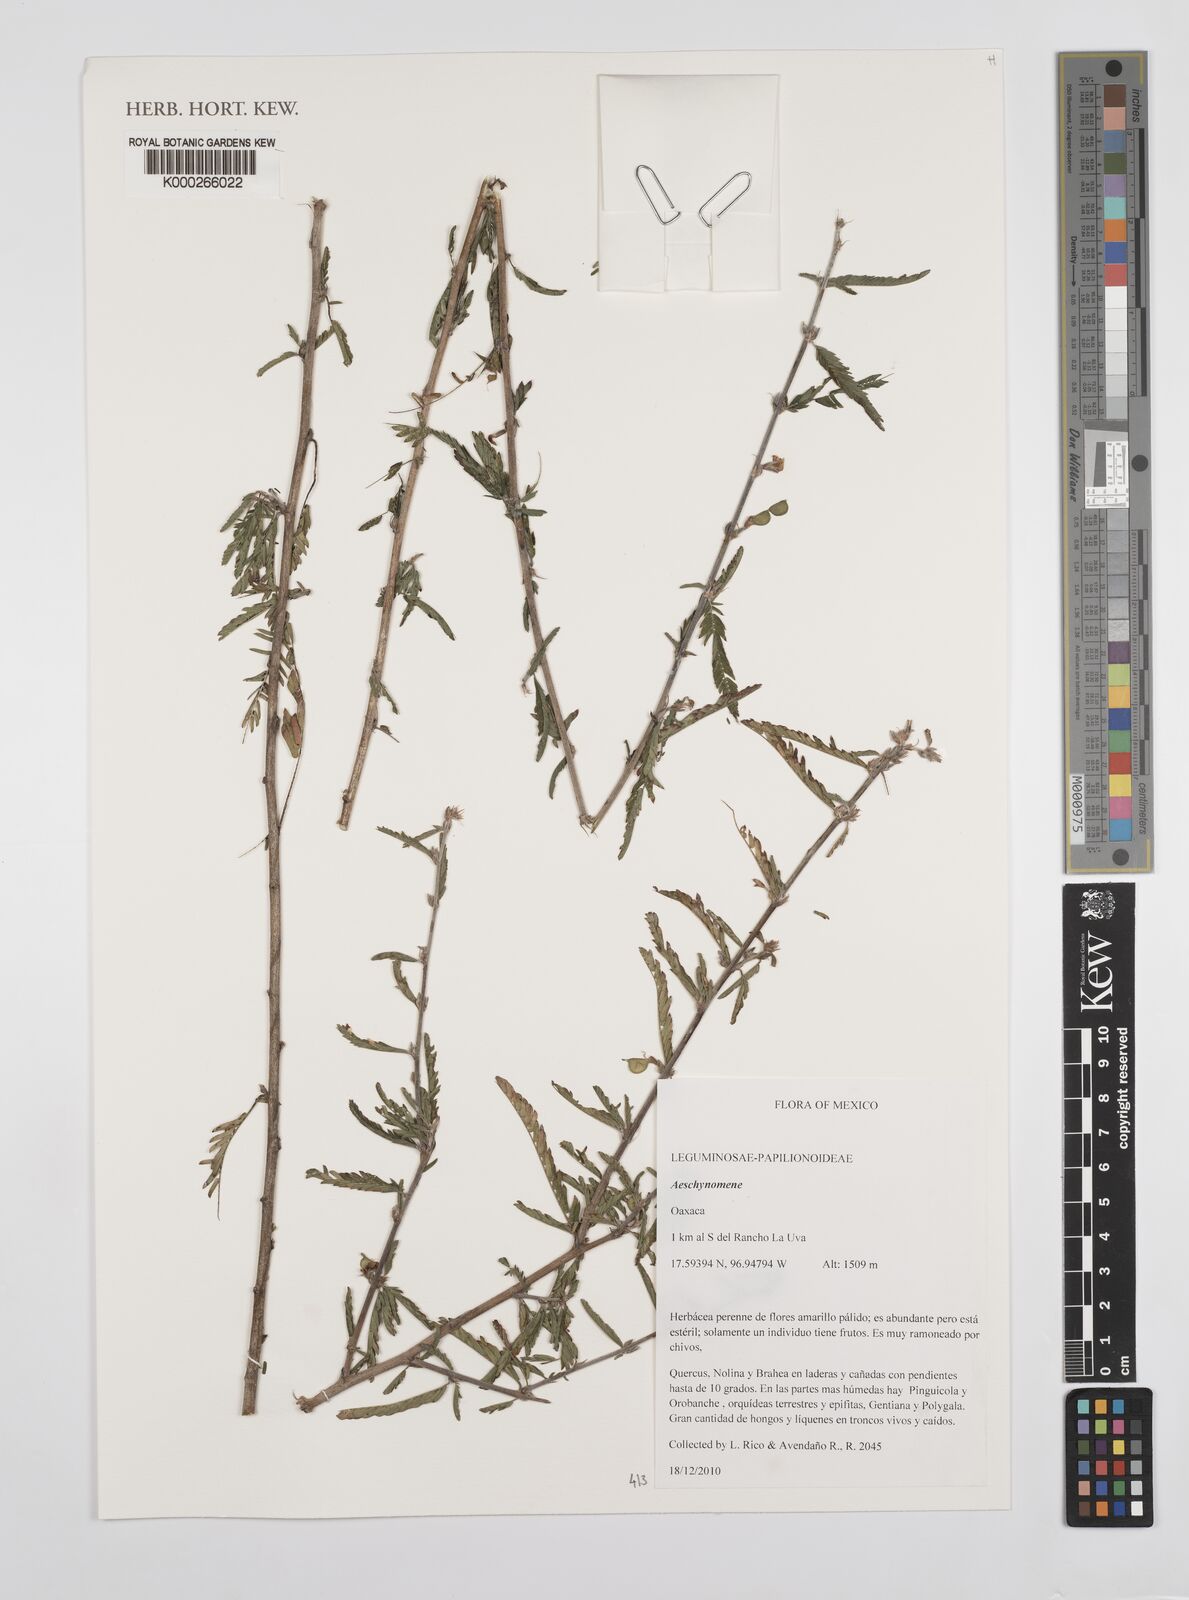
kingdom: Plantae
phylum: Tracheophyta
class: Magnoliopsida
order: Fabales
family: Fabaceae
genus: Aeschynomene
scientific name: Aeschynomene
